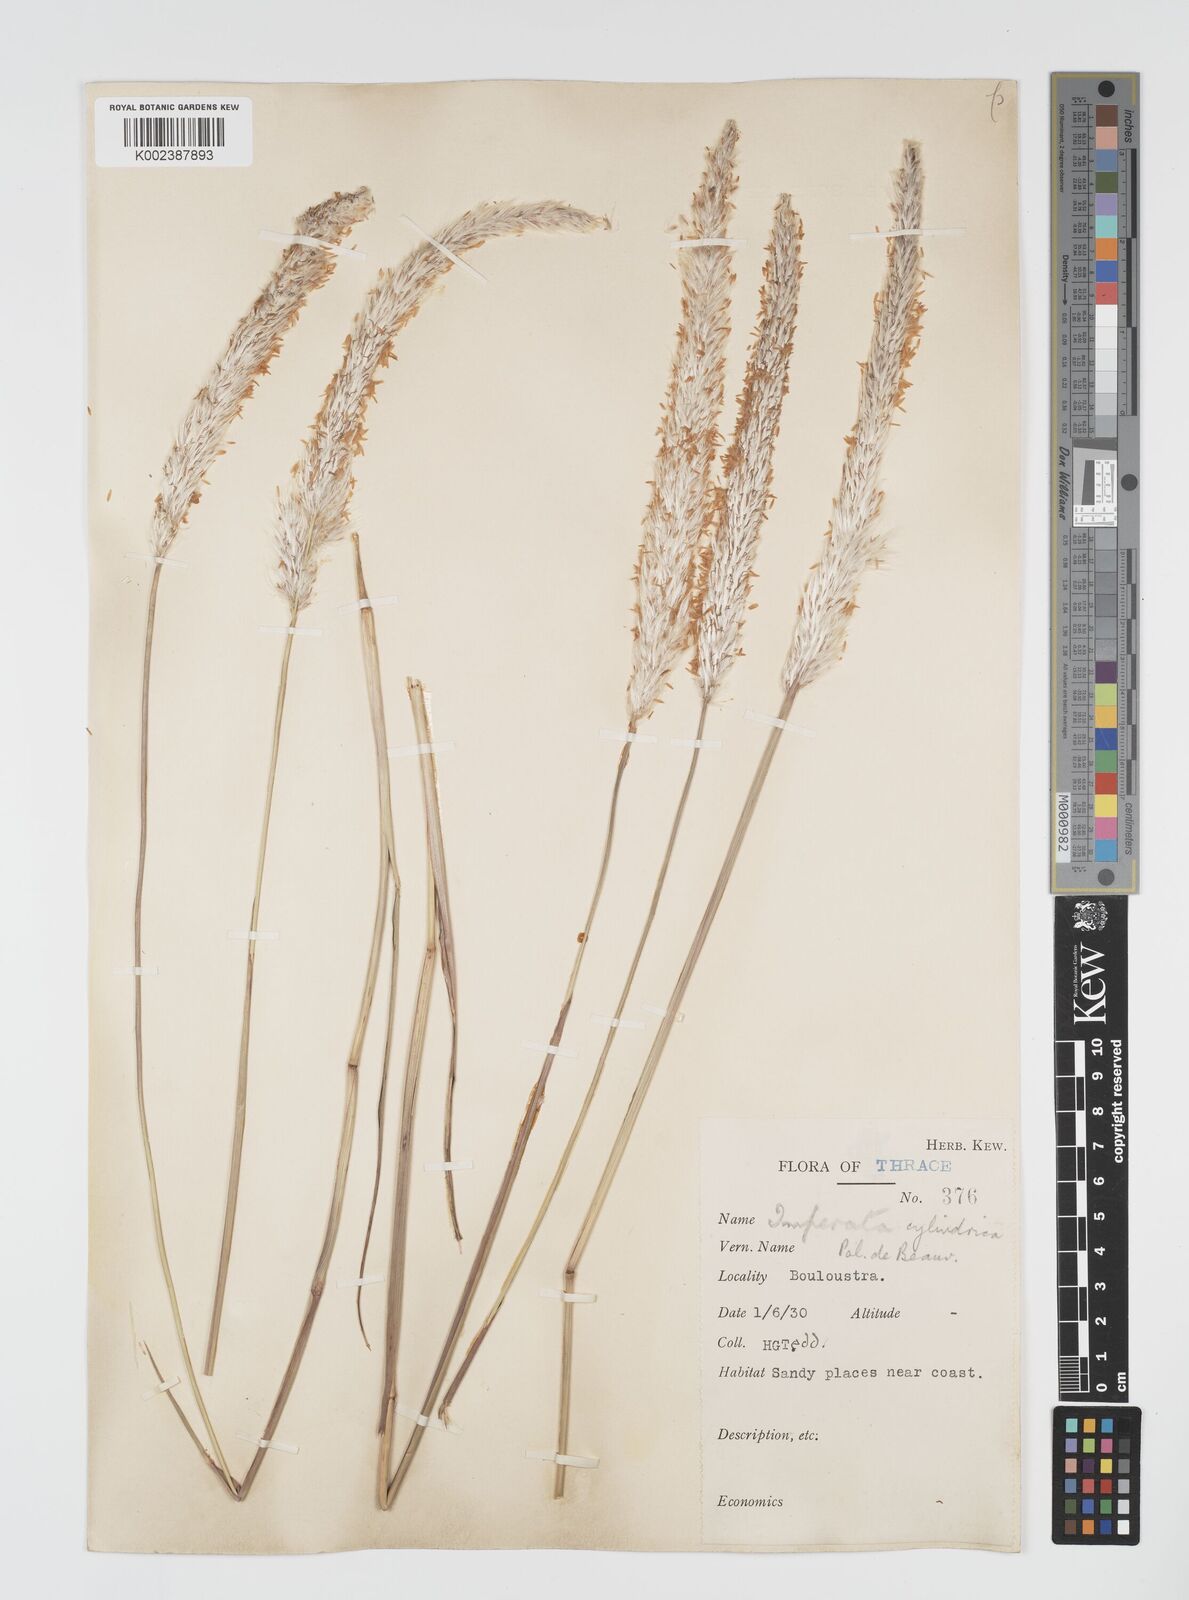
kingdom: Plantae
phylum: Tracheophyta
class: Liliopsida
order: Poales
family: Poaceae
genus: Imperata
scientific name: Imperata cylindrica
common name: Cogongrass
